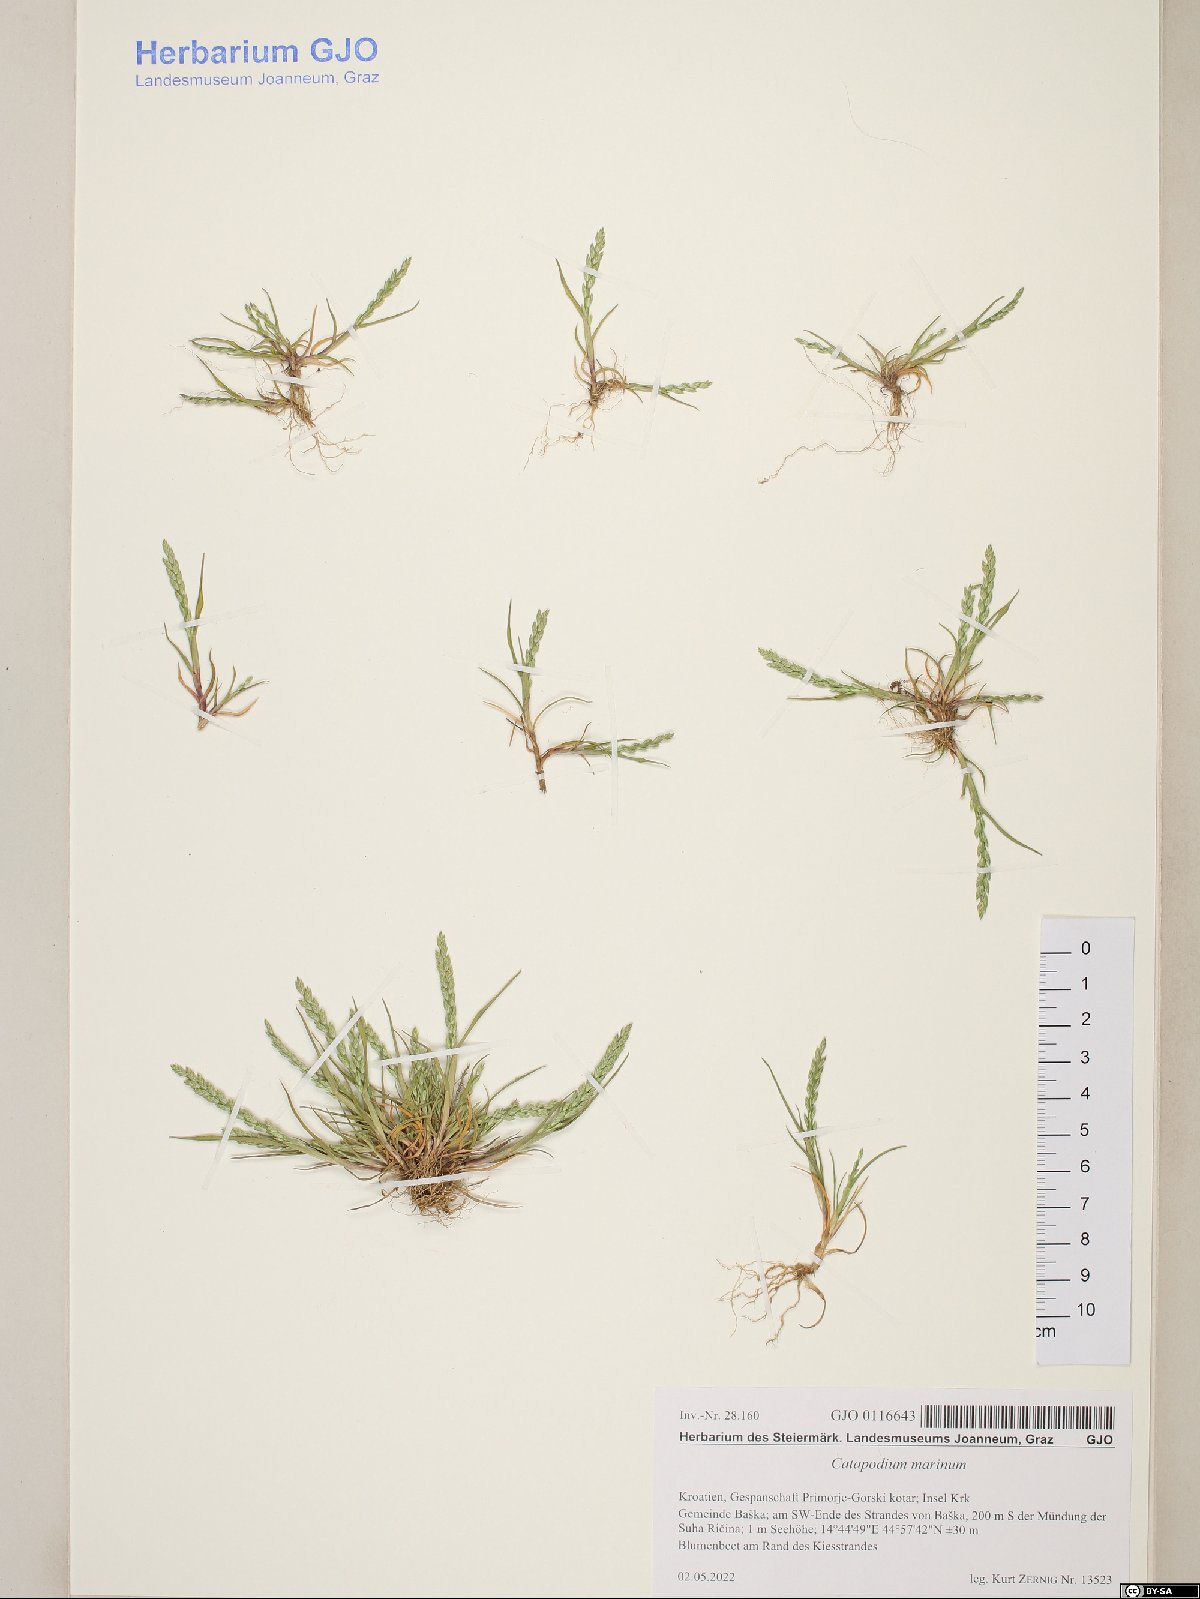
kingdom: Plantae
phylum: Tracheophyta
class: Liliopsida
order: Poales
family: Poaceae
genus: Catapodium
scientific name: Catapodium marinum
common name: Sea fern-grass
